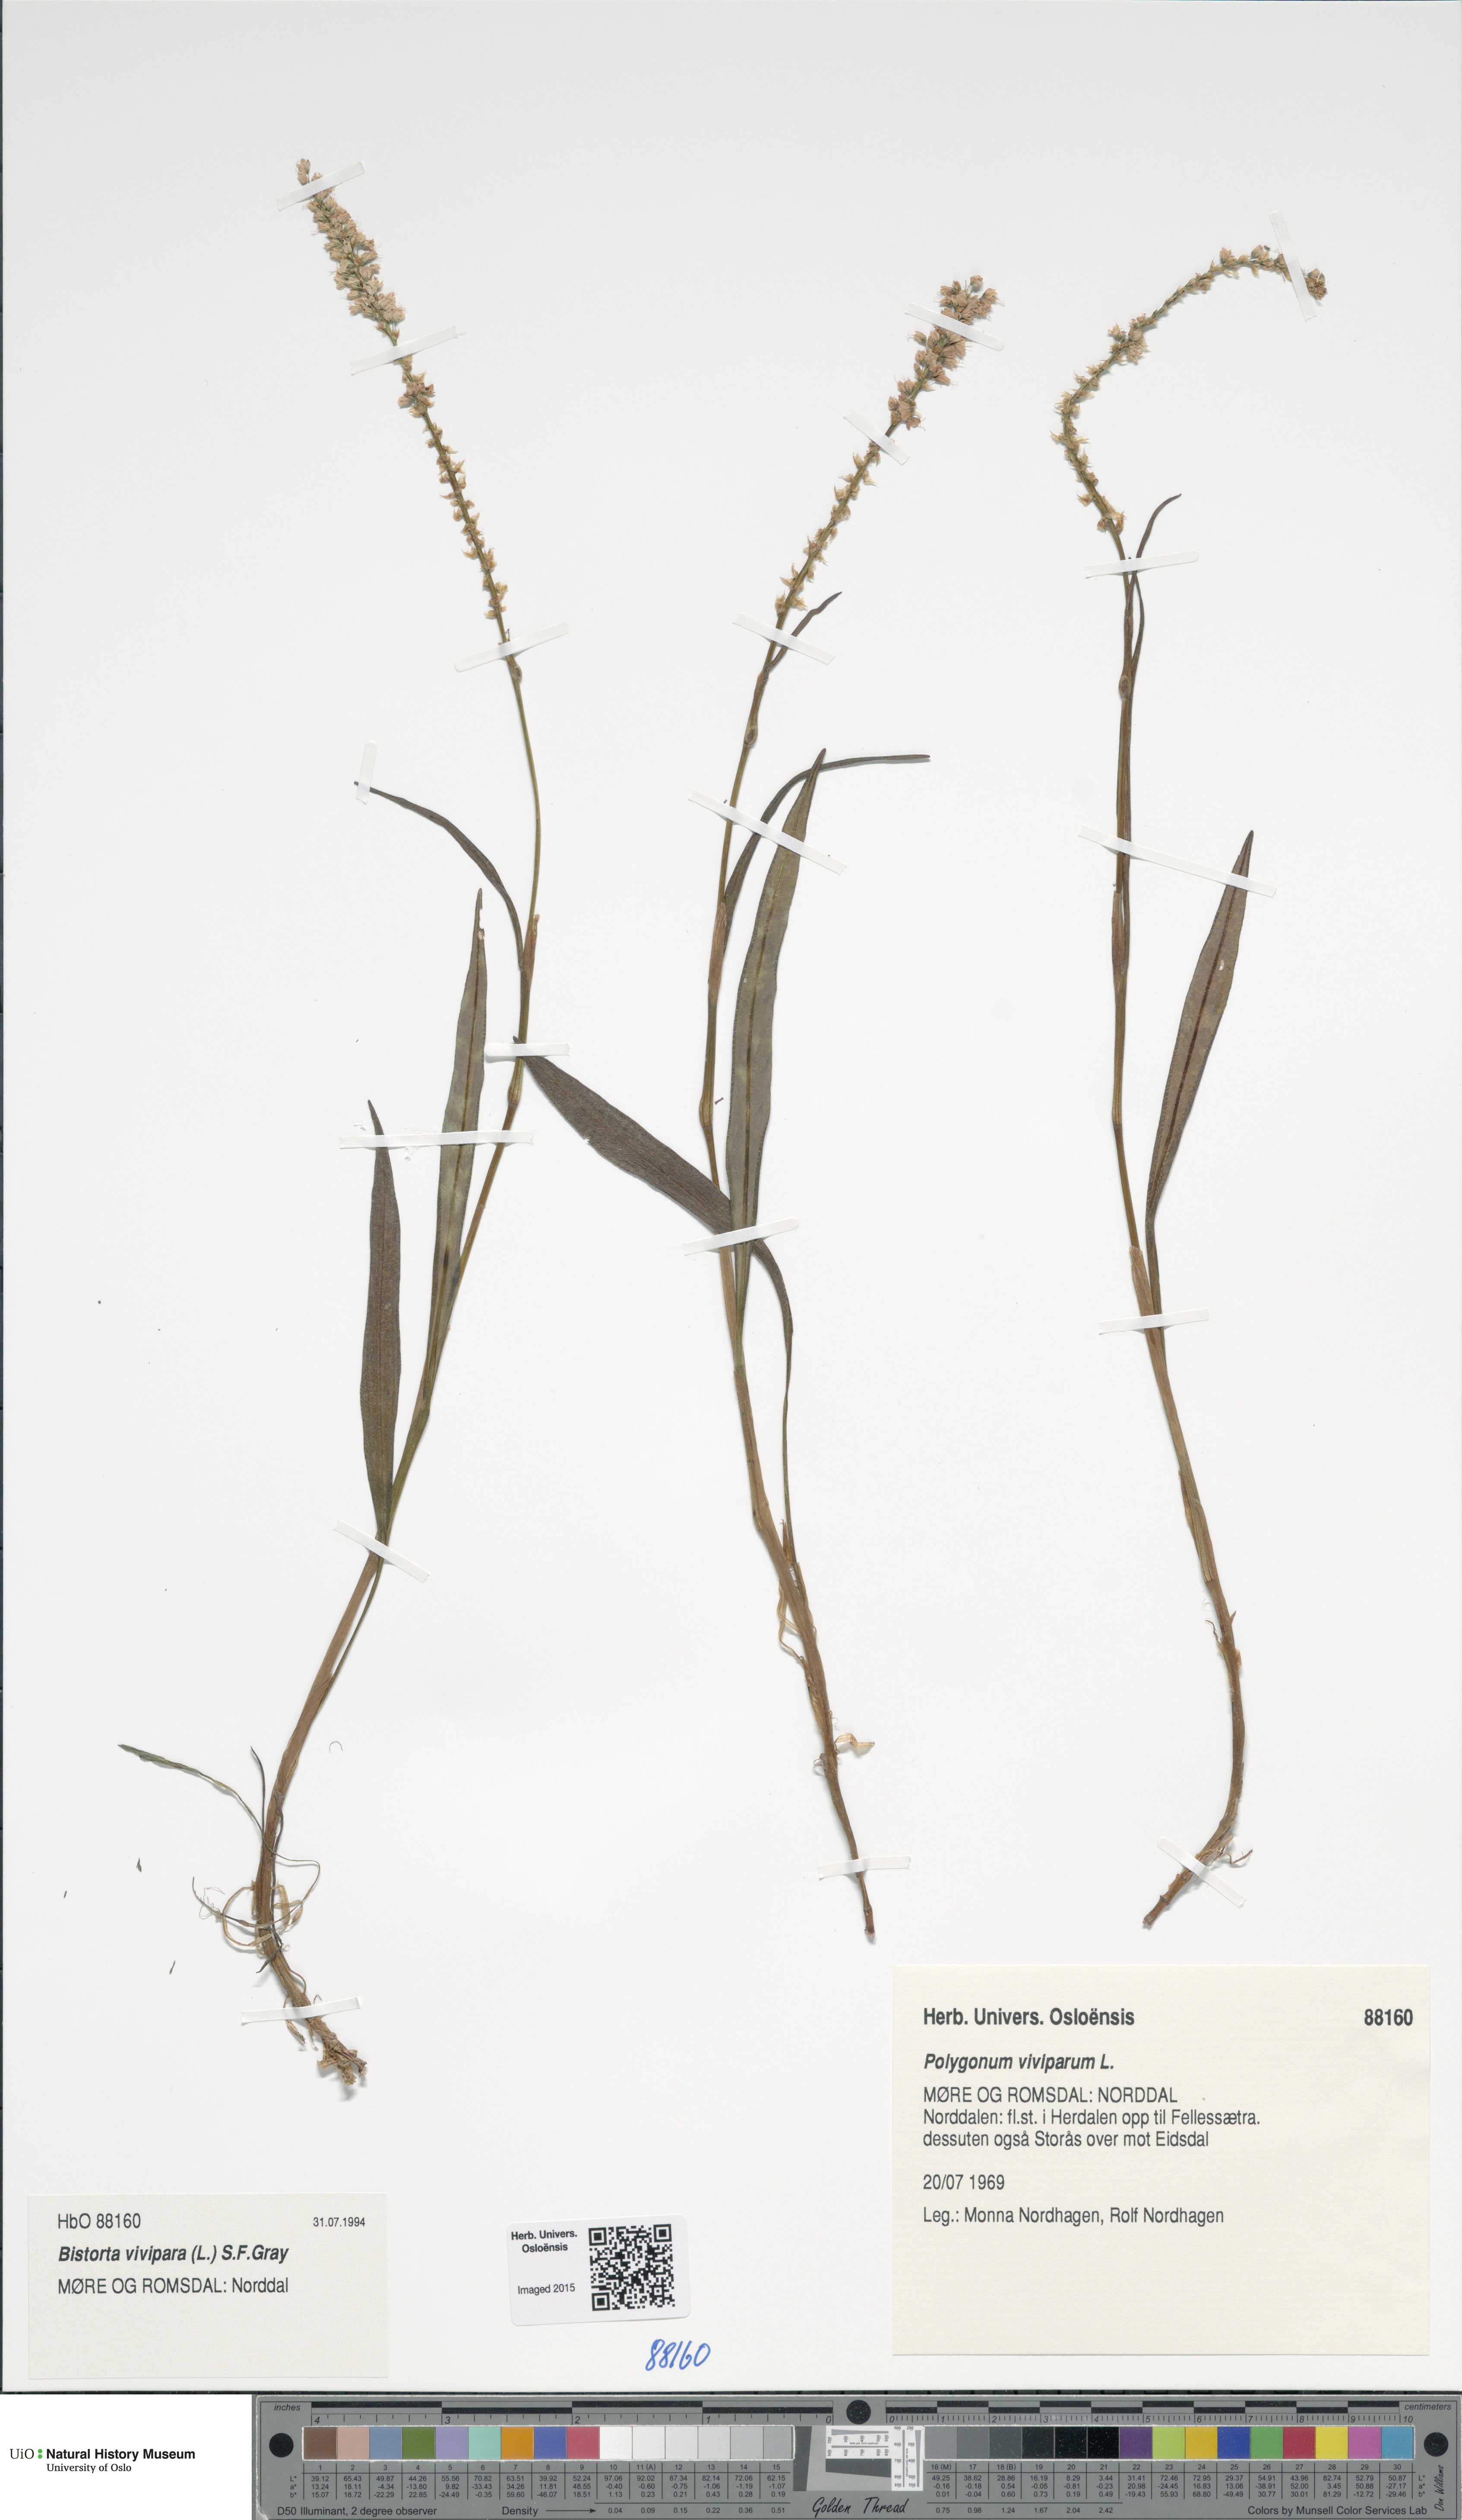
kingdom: Plantae
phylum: Tracheophyta
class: Magnoliopsida
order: Caryophyllales
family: Polygonaceae
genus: Bistorta
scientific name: Bistorta vivipara
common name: Alpine bistort
